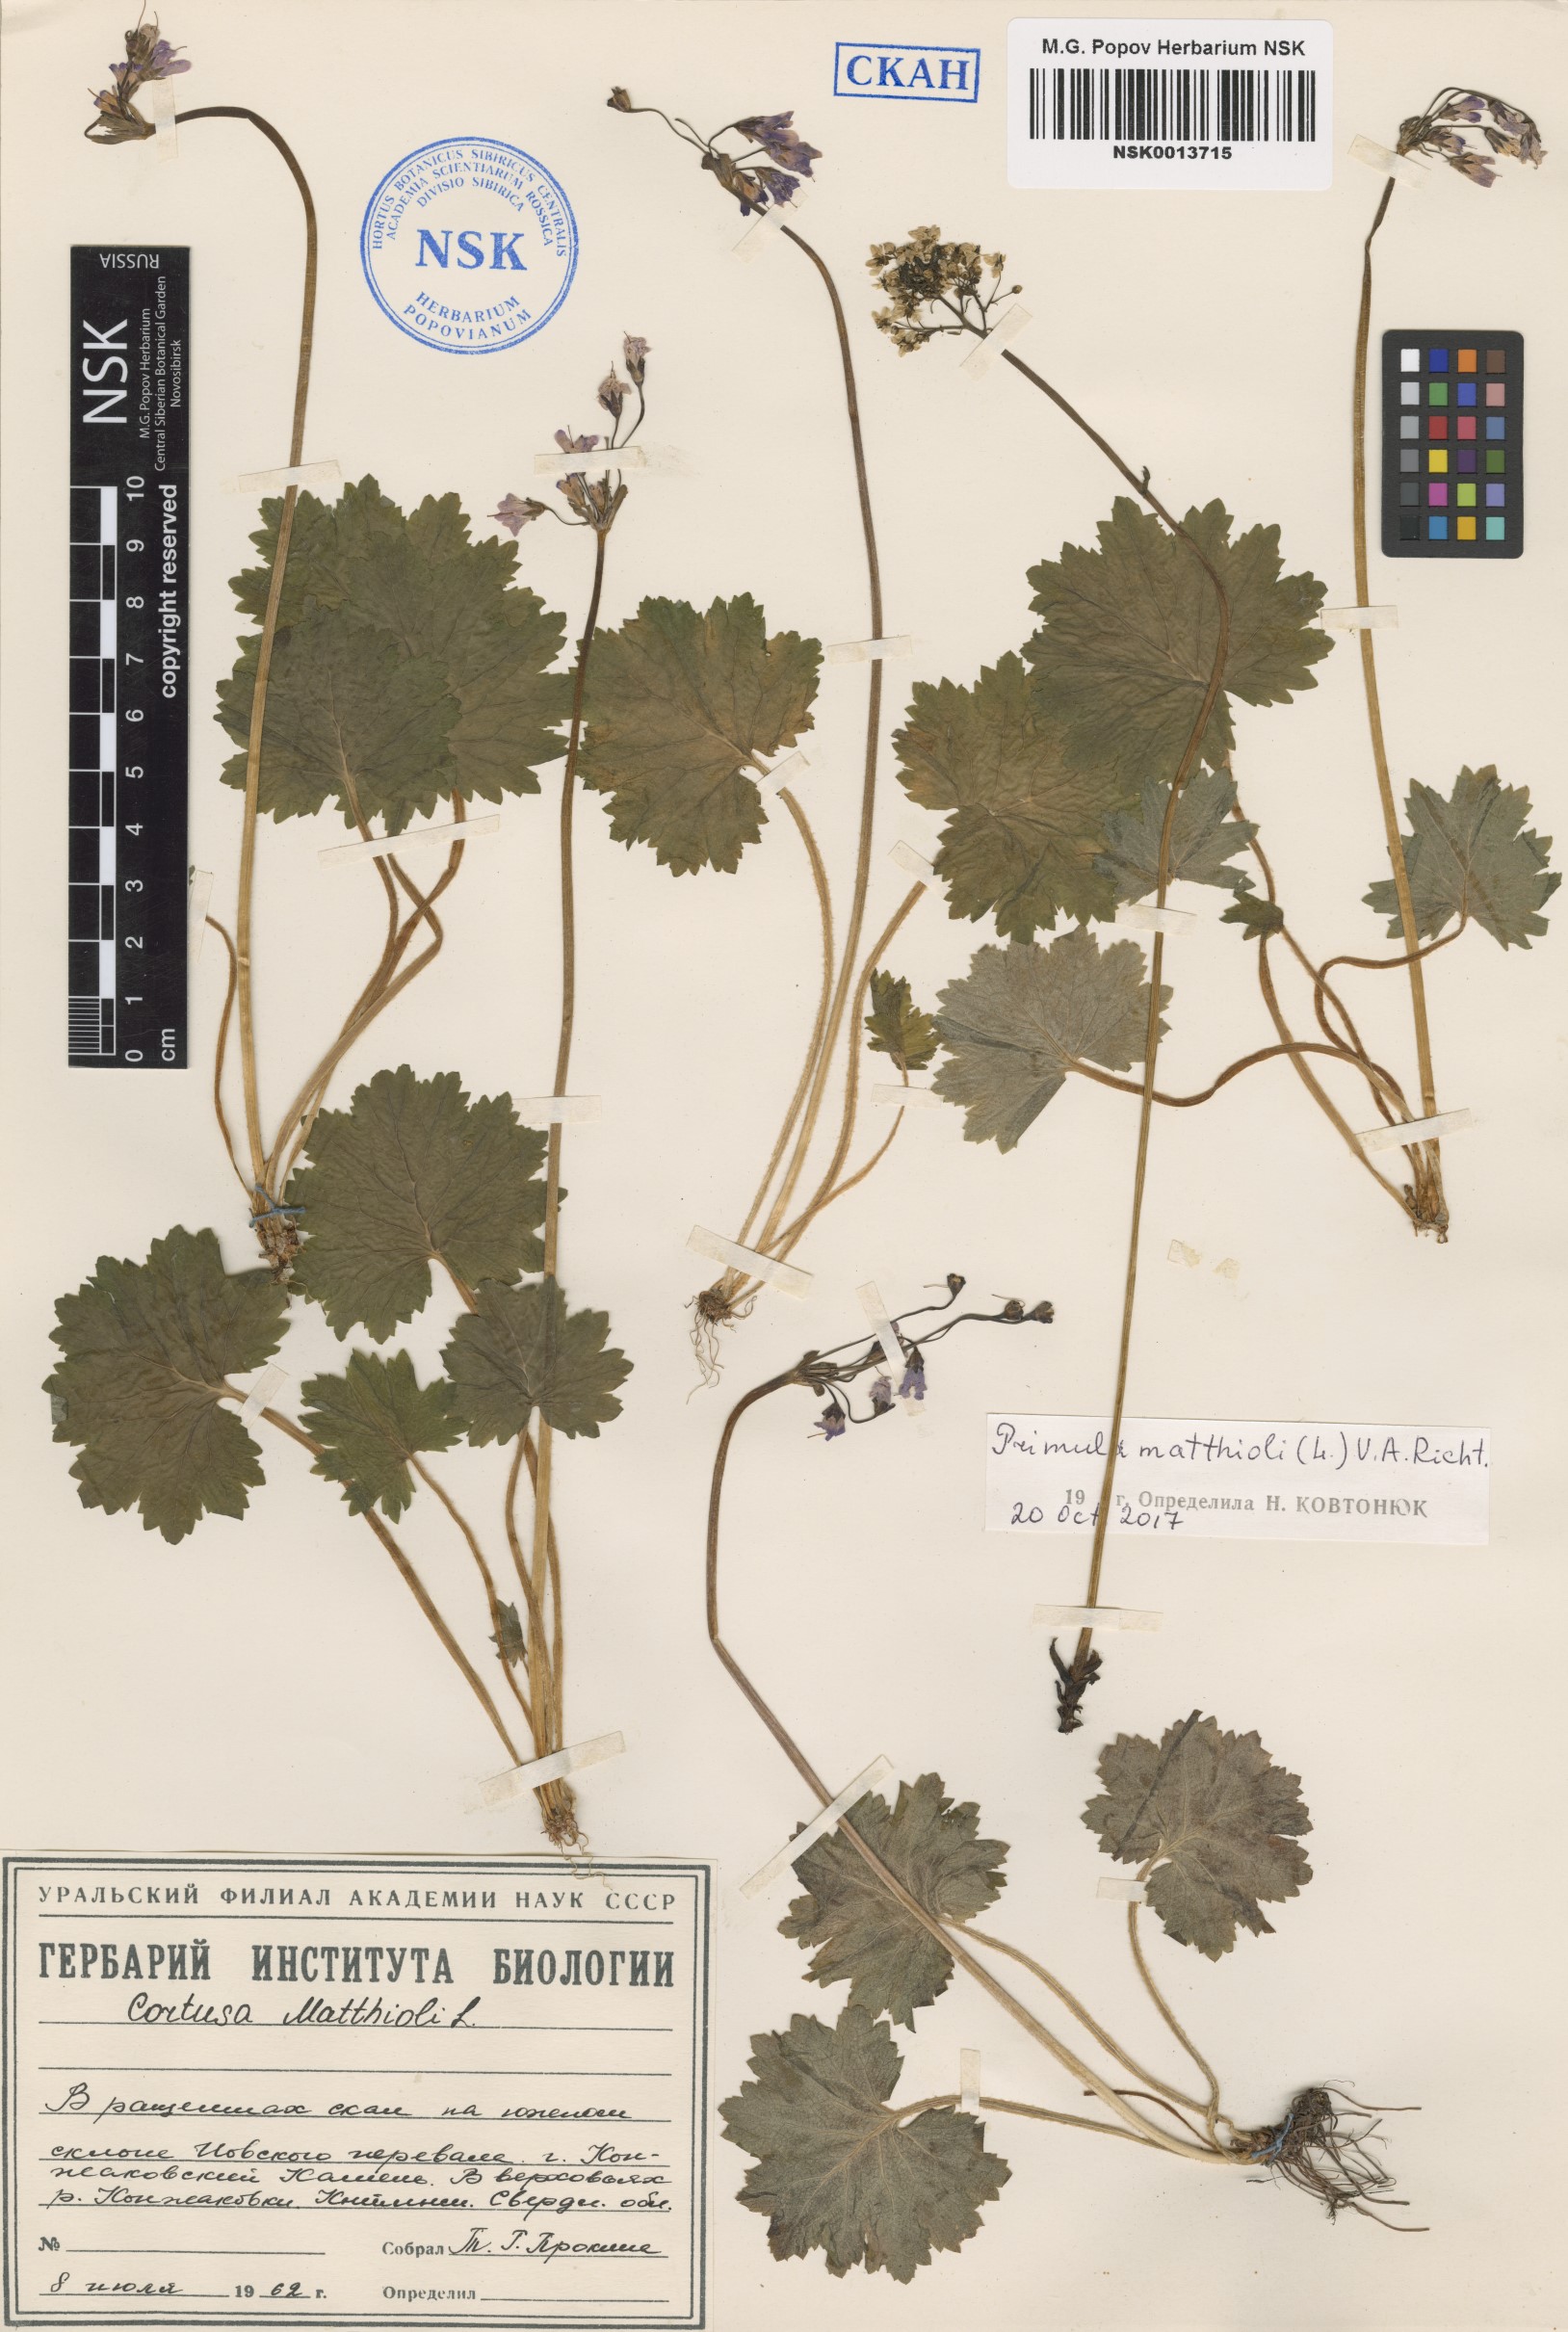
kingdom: Plantae
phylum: Tracheophyta
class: Magnoliopsida
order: Ericales
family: Primulaceae
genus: Primula
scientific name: Primula matthioli
